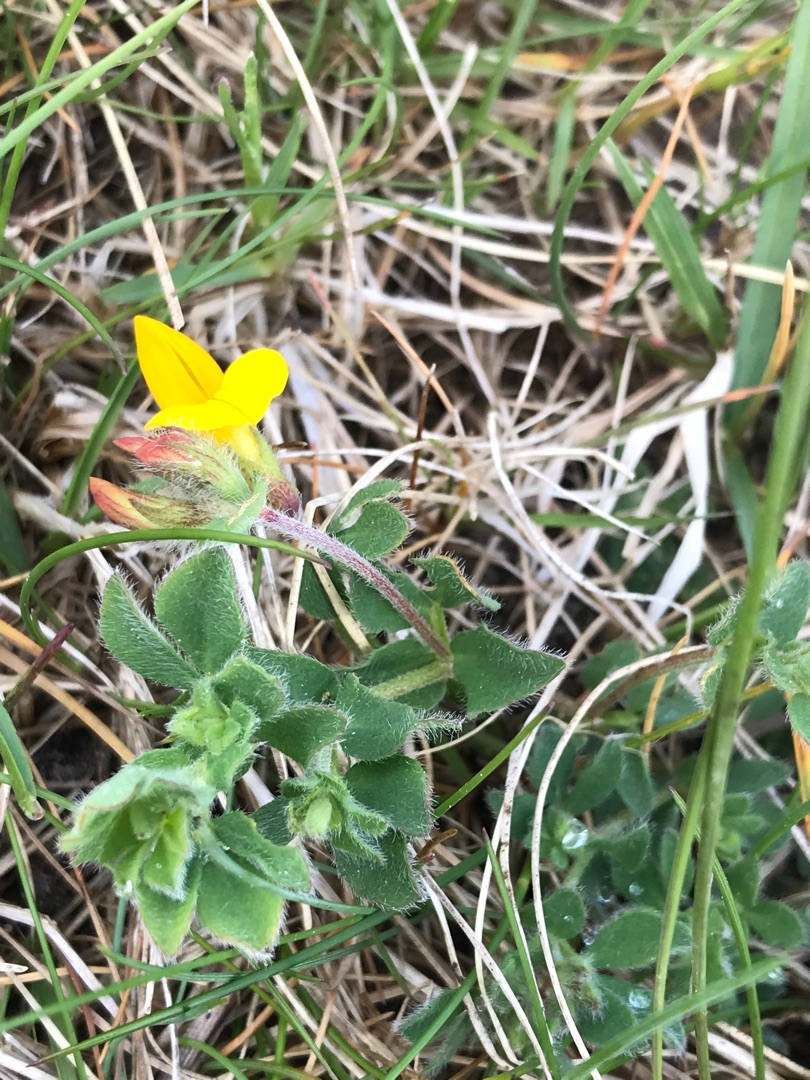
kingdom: Plantae
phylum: Tracheophyta
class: Magnoliopsida
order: Fabales
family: Fabaceae
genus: Lotus
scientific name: Lotus corniculatus
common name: Almindelig kællingetand
